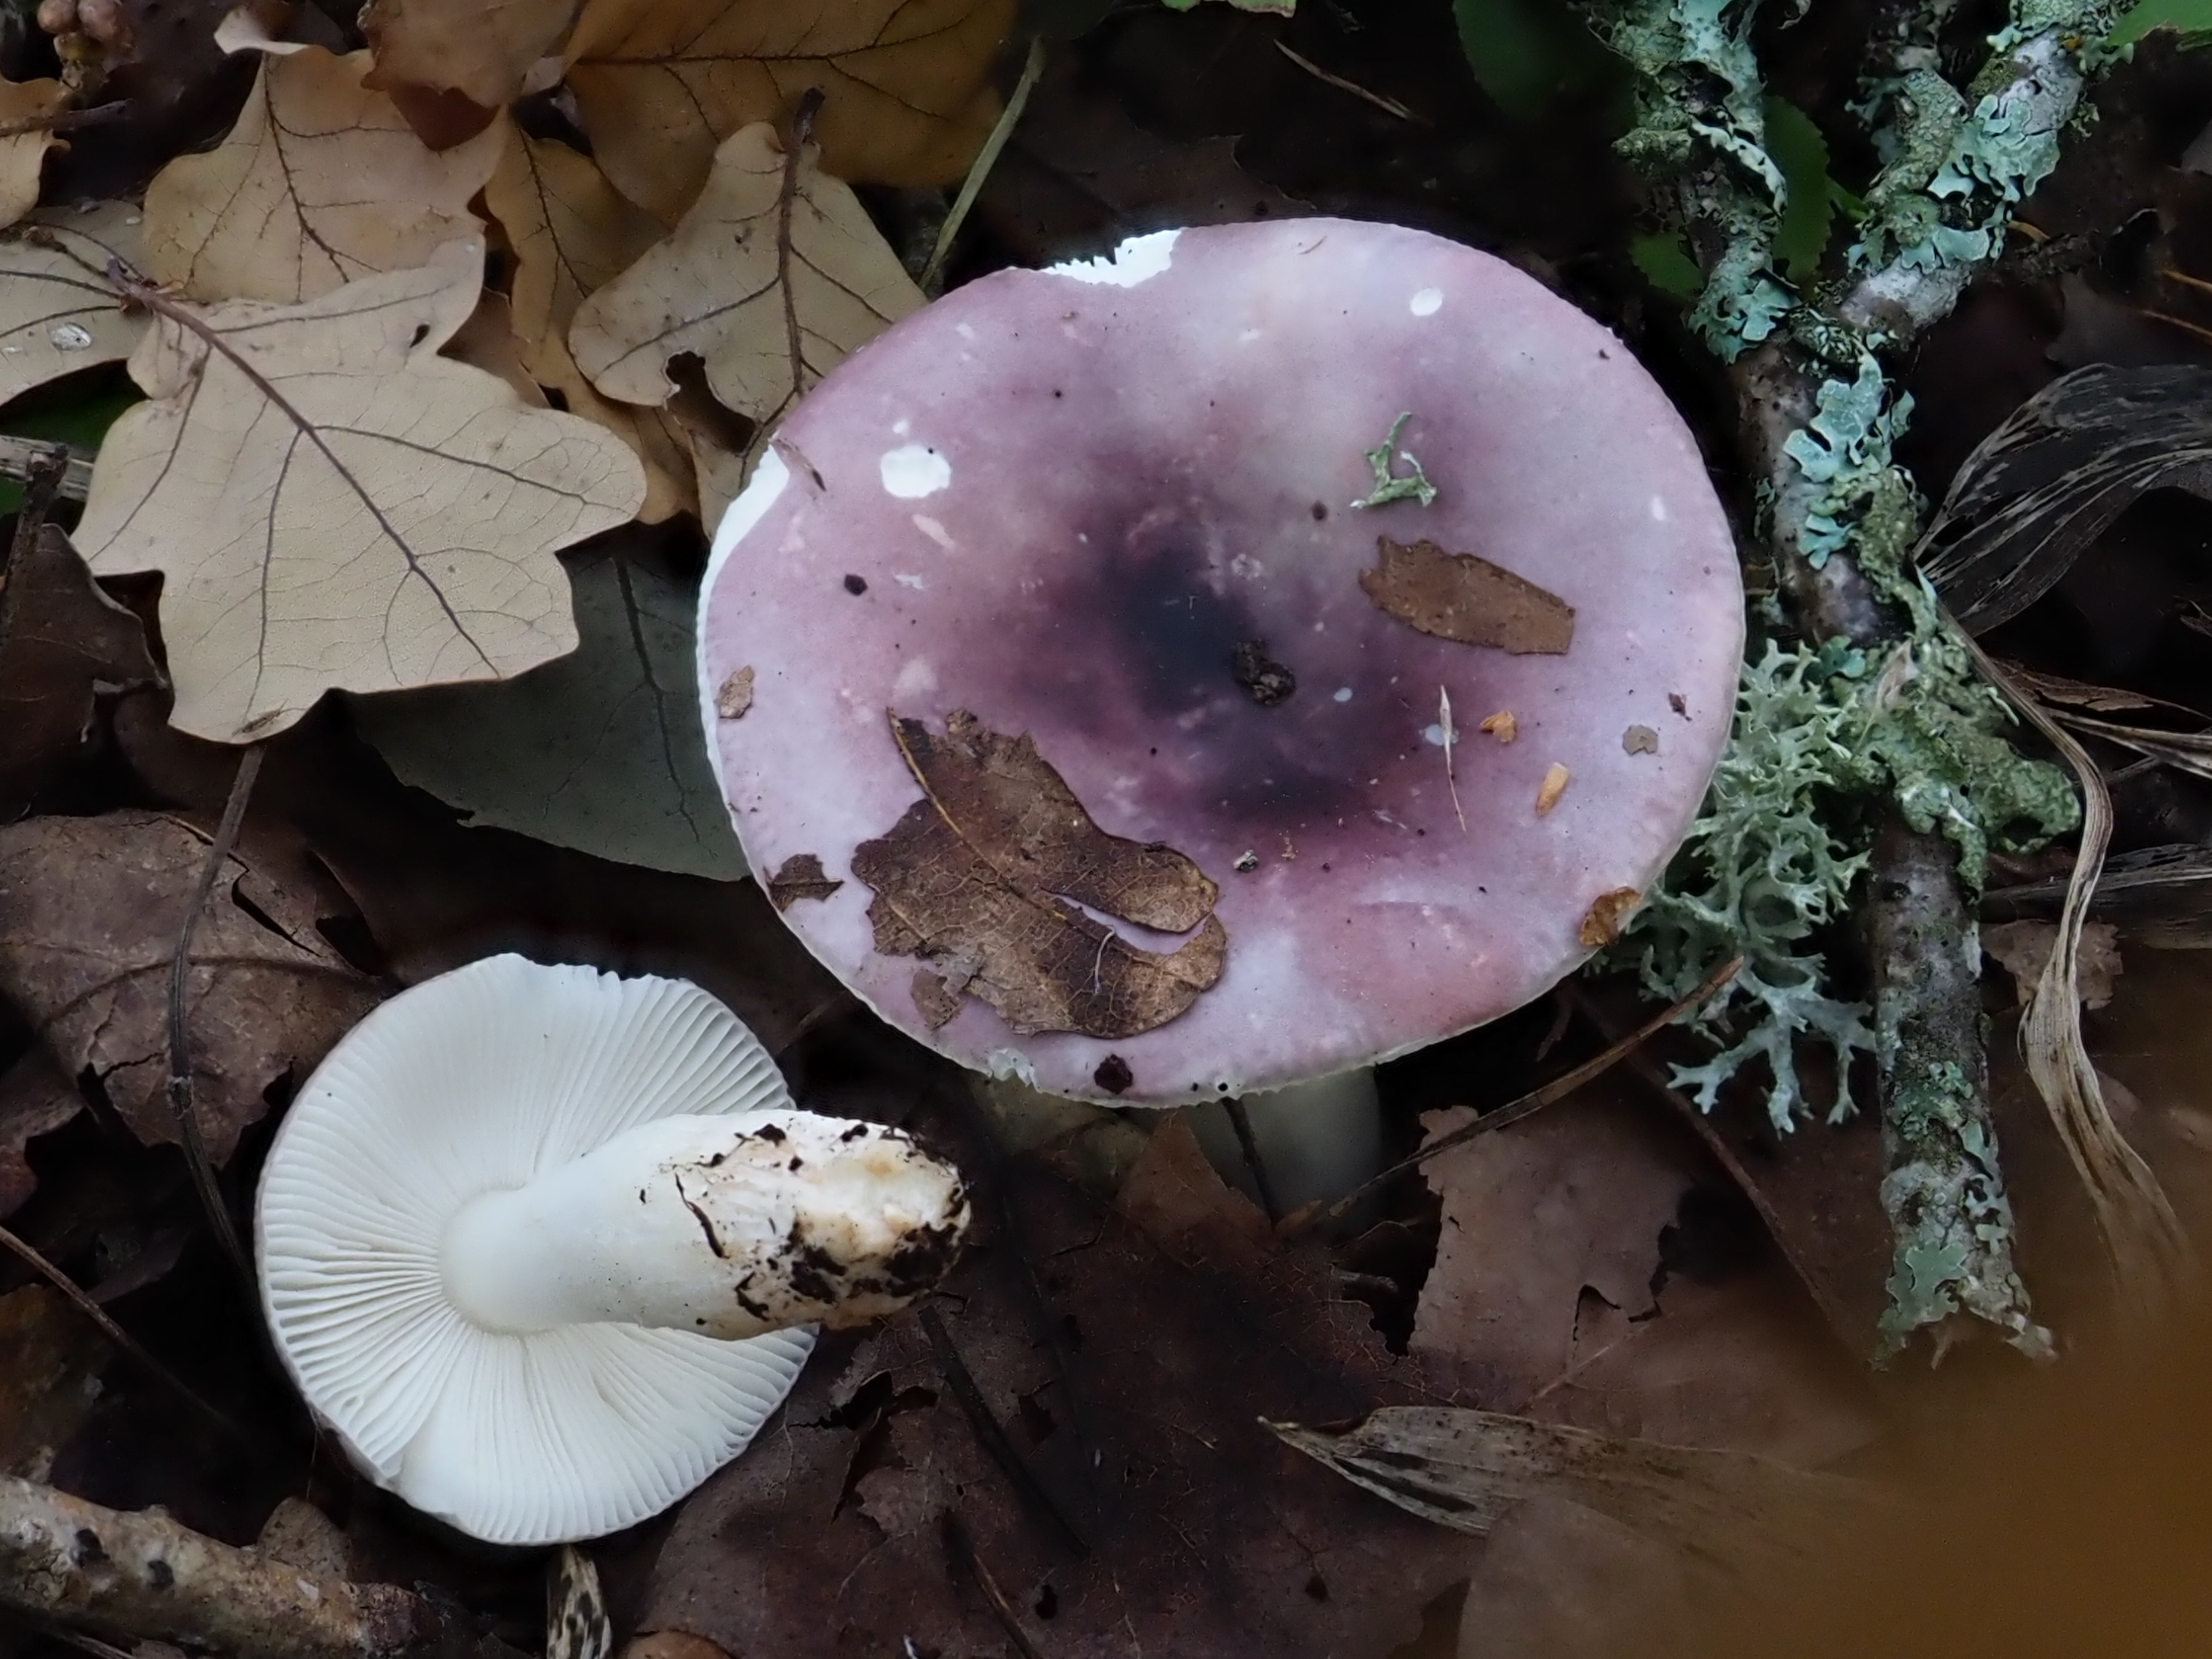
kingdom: Fungi
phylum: Basidiomycota
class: Agaricomycetes
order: Russulales
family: Russulaceae
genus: Russula
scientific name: Russula azurea
